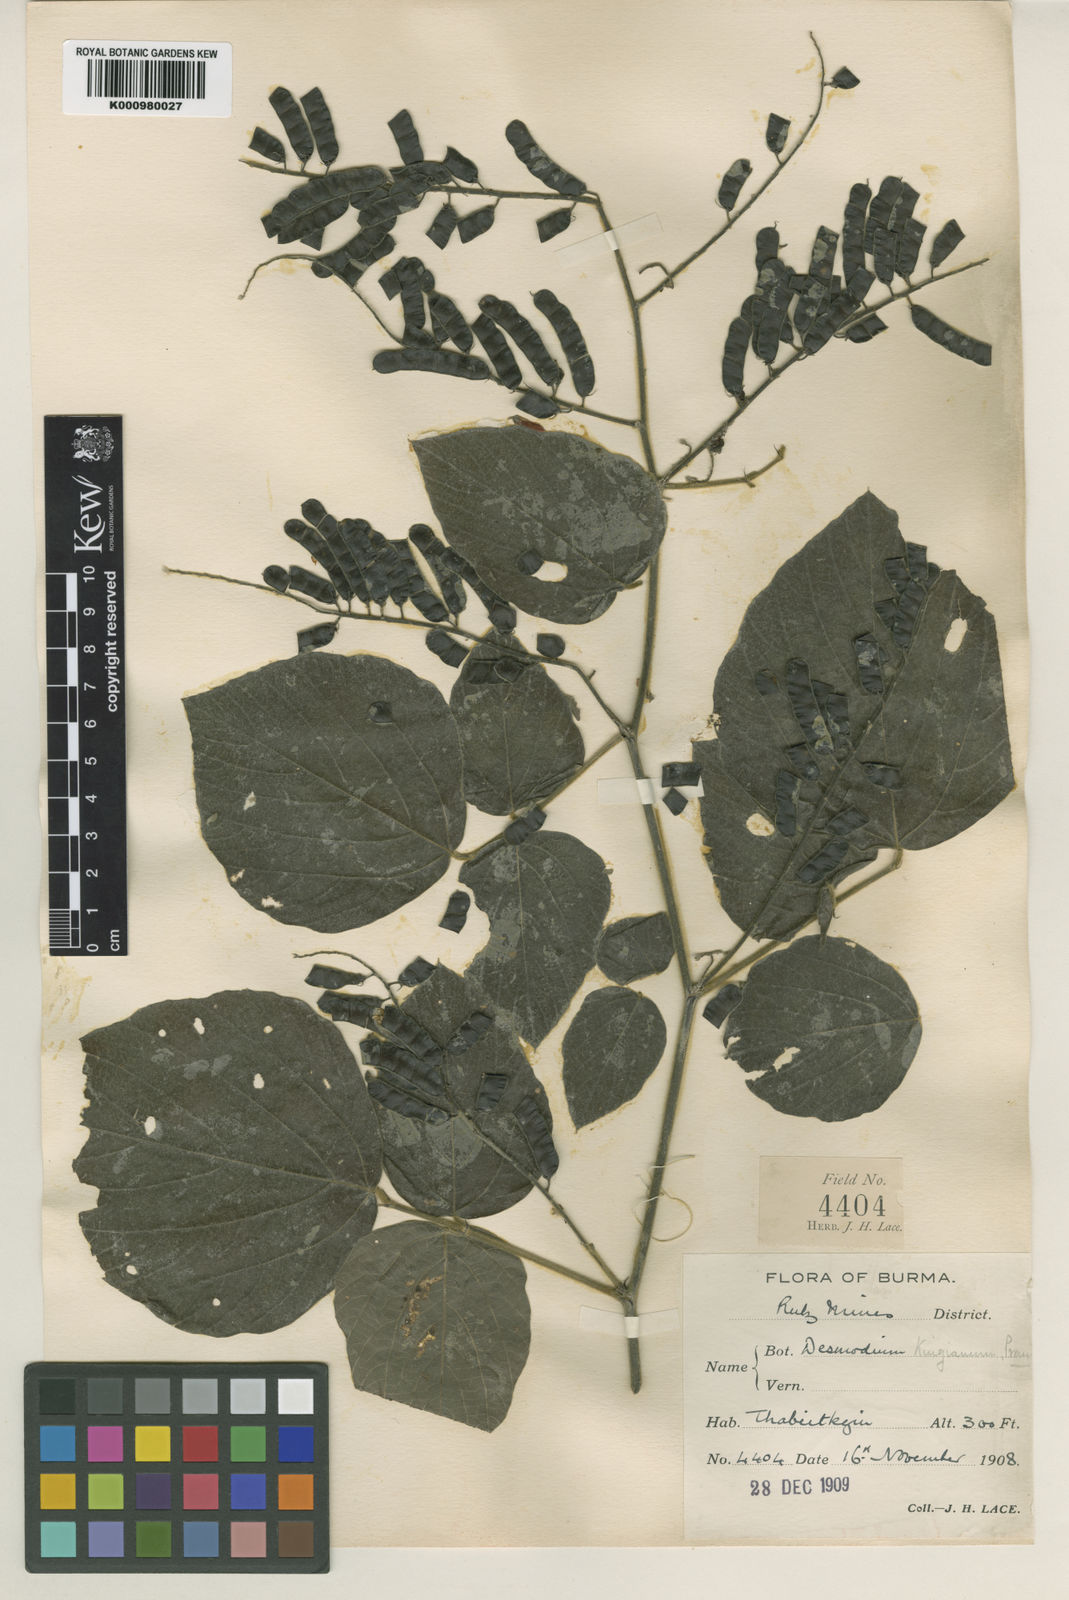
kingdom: Plantae
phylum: Tracheophyta
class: Magnoliopsida
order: Fabales
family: Fabaceae
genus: Daprainia
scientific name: Daprainia kingiana
